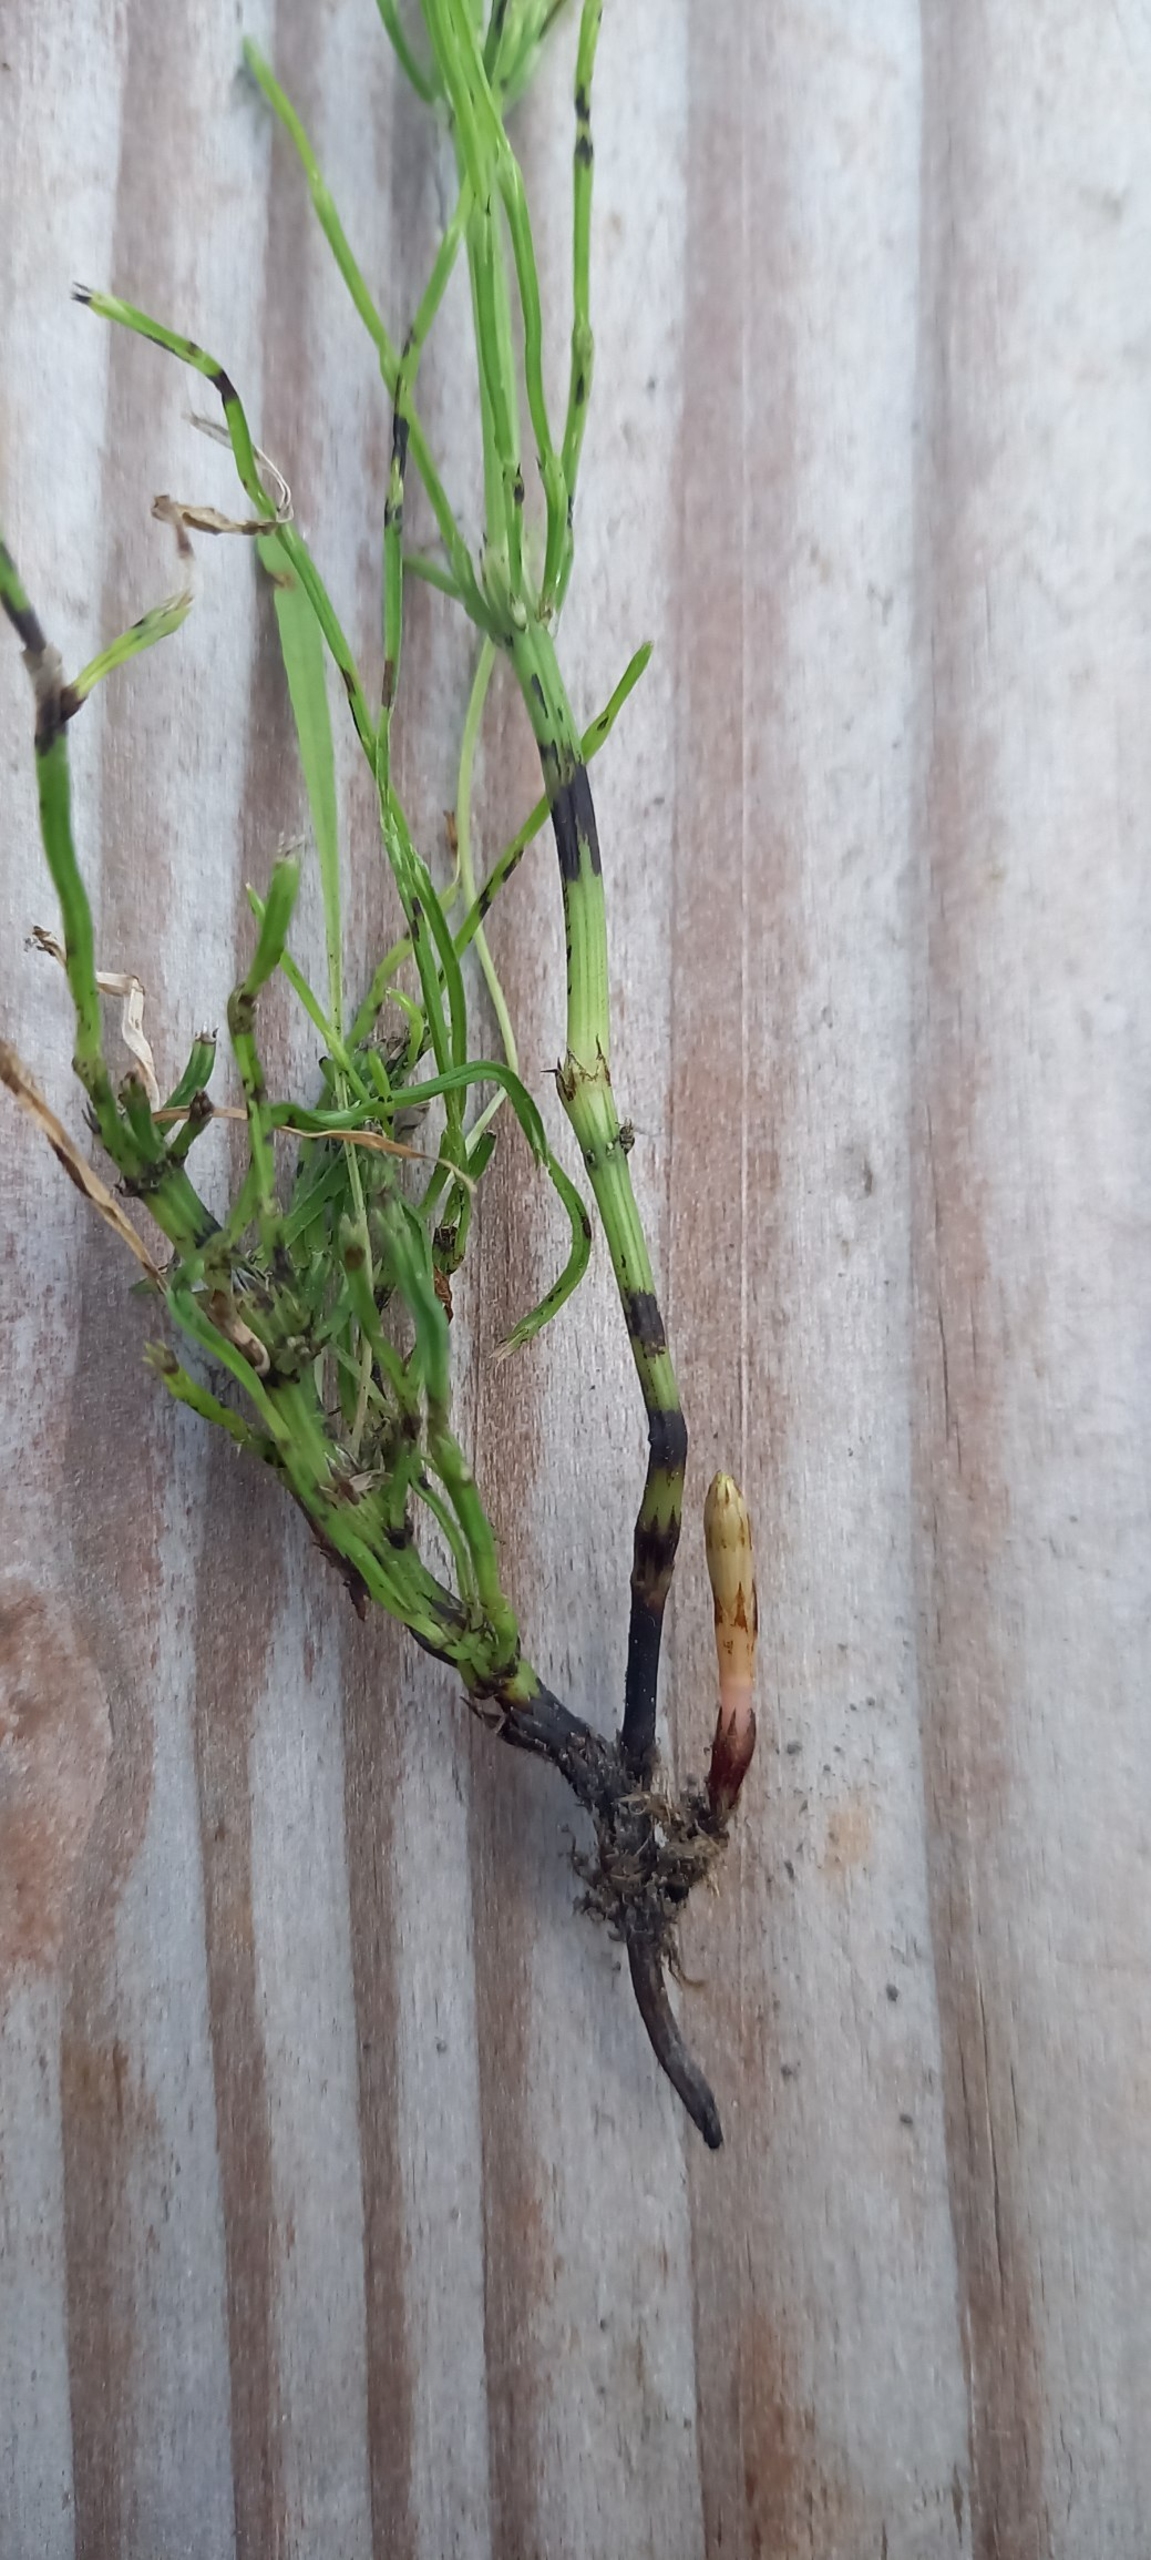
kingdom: Plantae
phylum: Tracheophyta
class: Polypodiopsida
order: Equisetales
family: Equisetaceae
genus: Equisetum
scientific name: Equisetum arvense
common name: Ager-padderok
